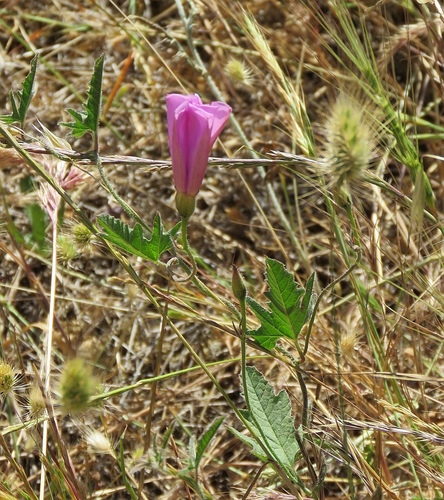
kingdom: Plantae
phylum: Tracheophyta
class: Magnoliopsida
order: Solanales
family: Convolvulaceae
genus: Convolvulus
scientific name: Convolvulus althaeoides
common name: Mallow bindweed
